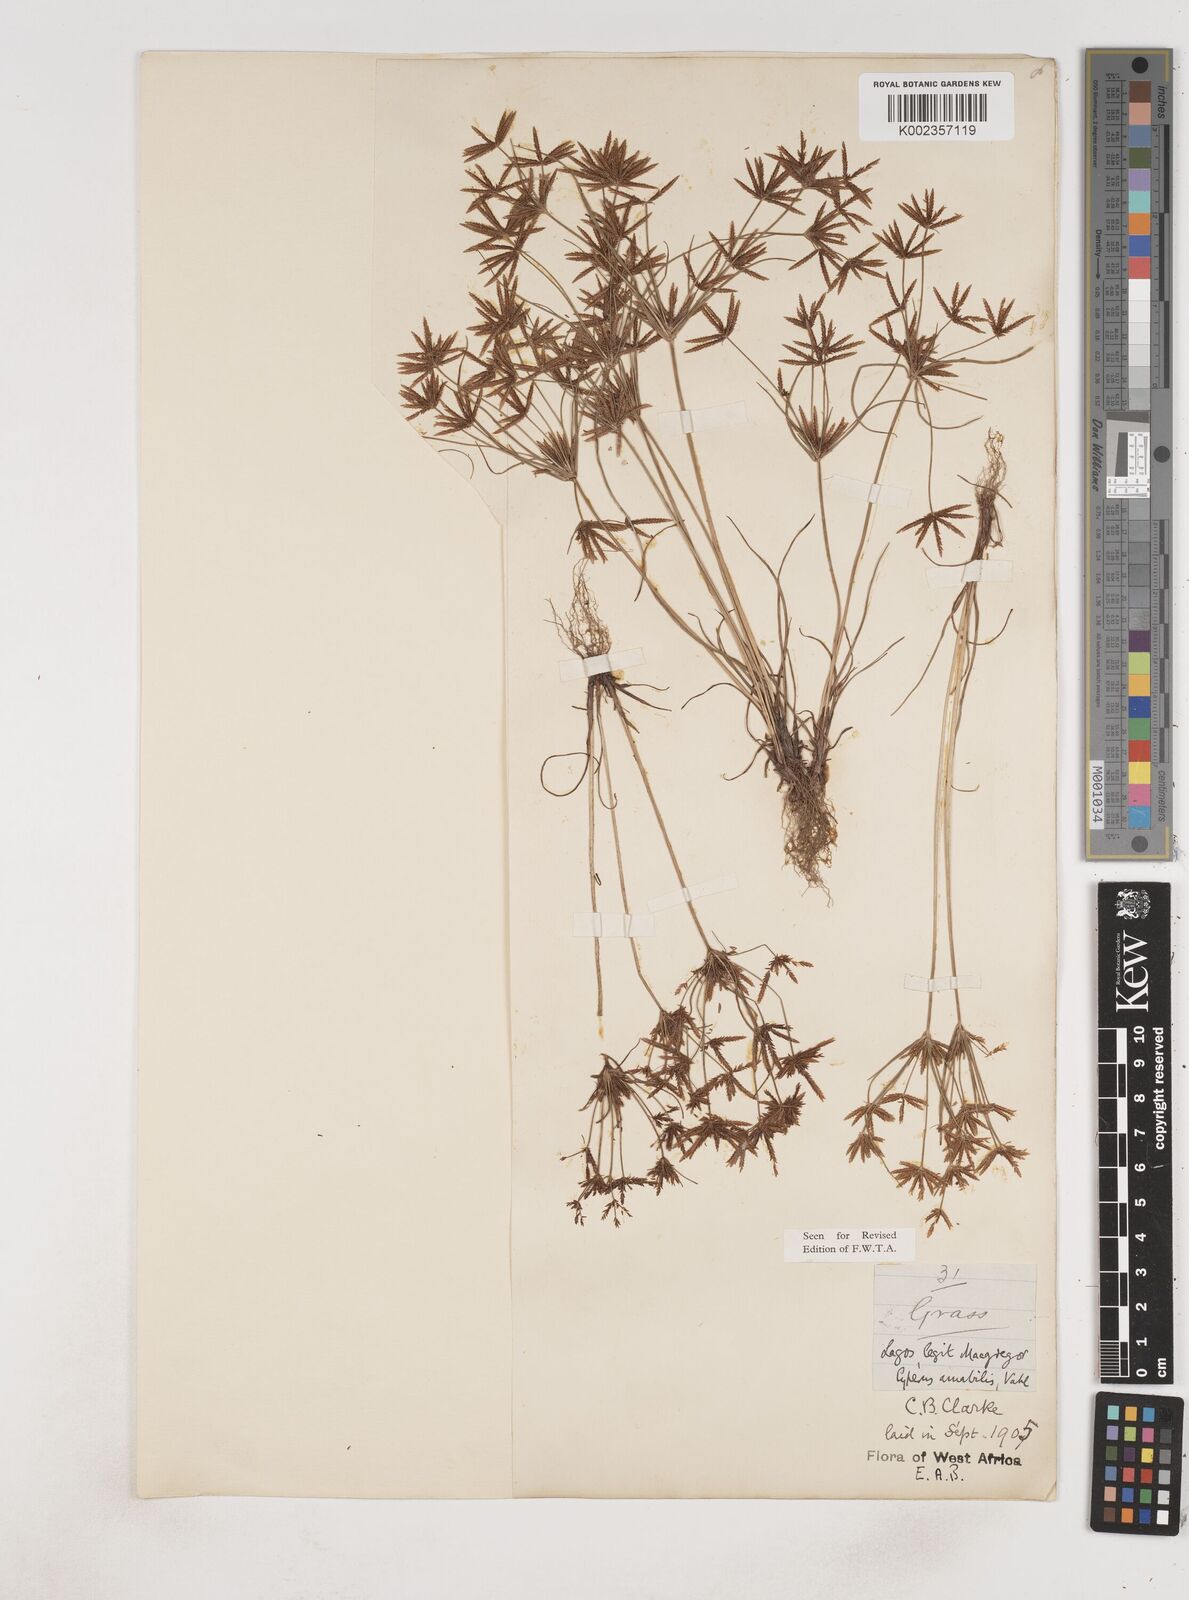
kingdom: Plantae
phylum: Tracheophyta
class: Liliopsida
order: Poales
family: Cyperaceae
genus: Cyperus
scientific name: Cyperus amabilis
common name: Foothill flat sedge
